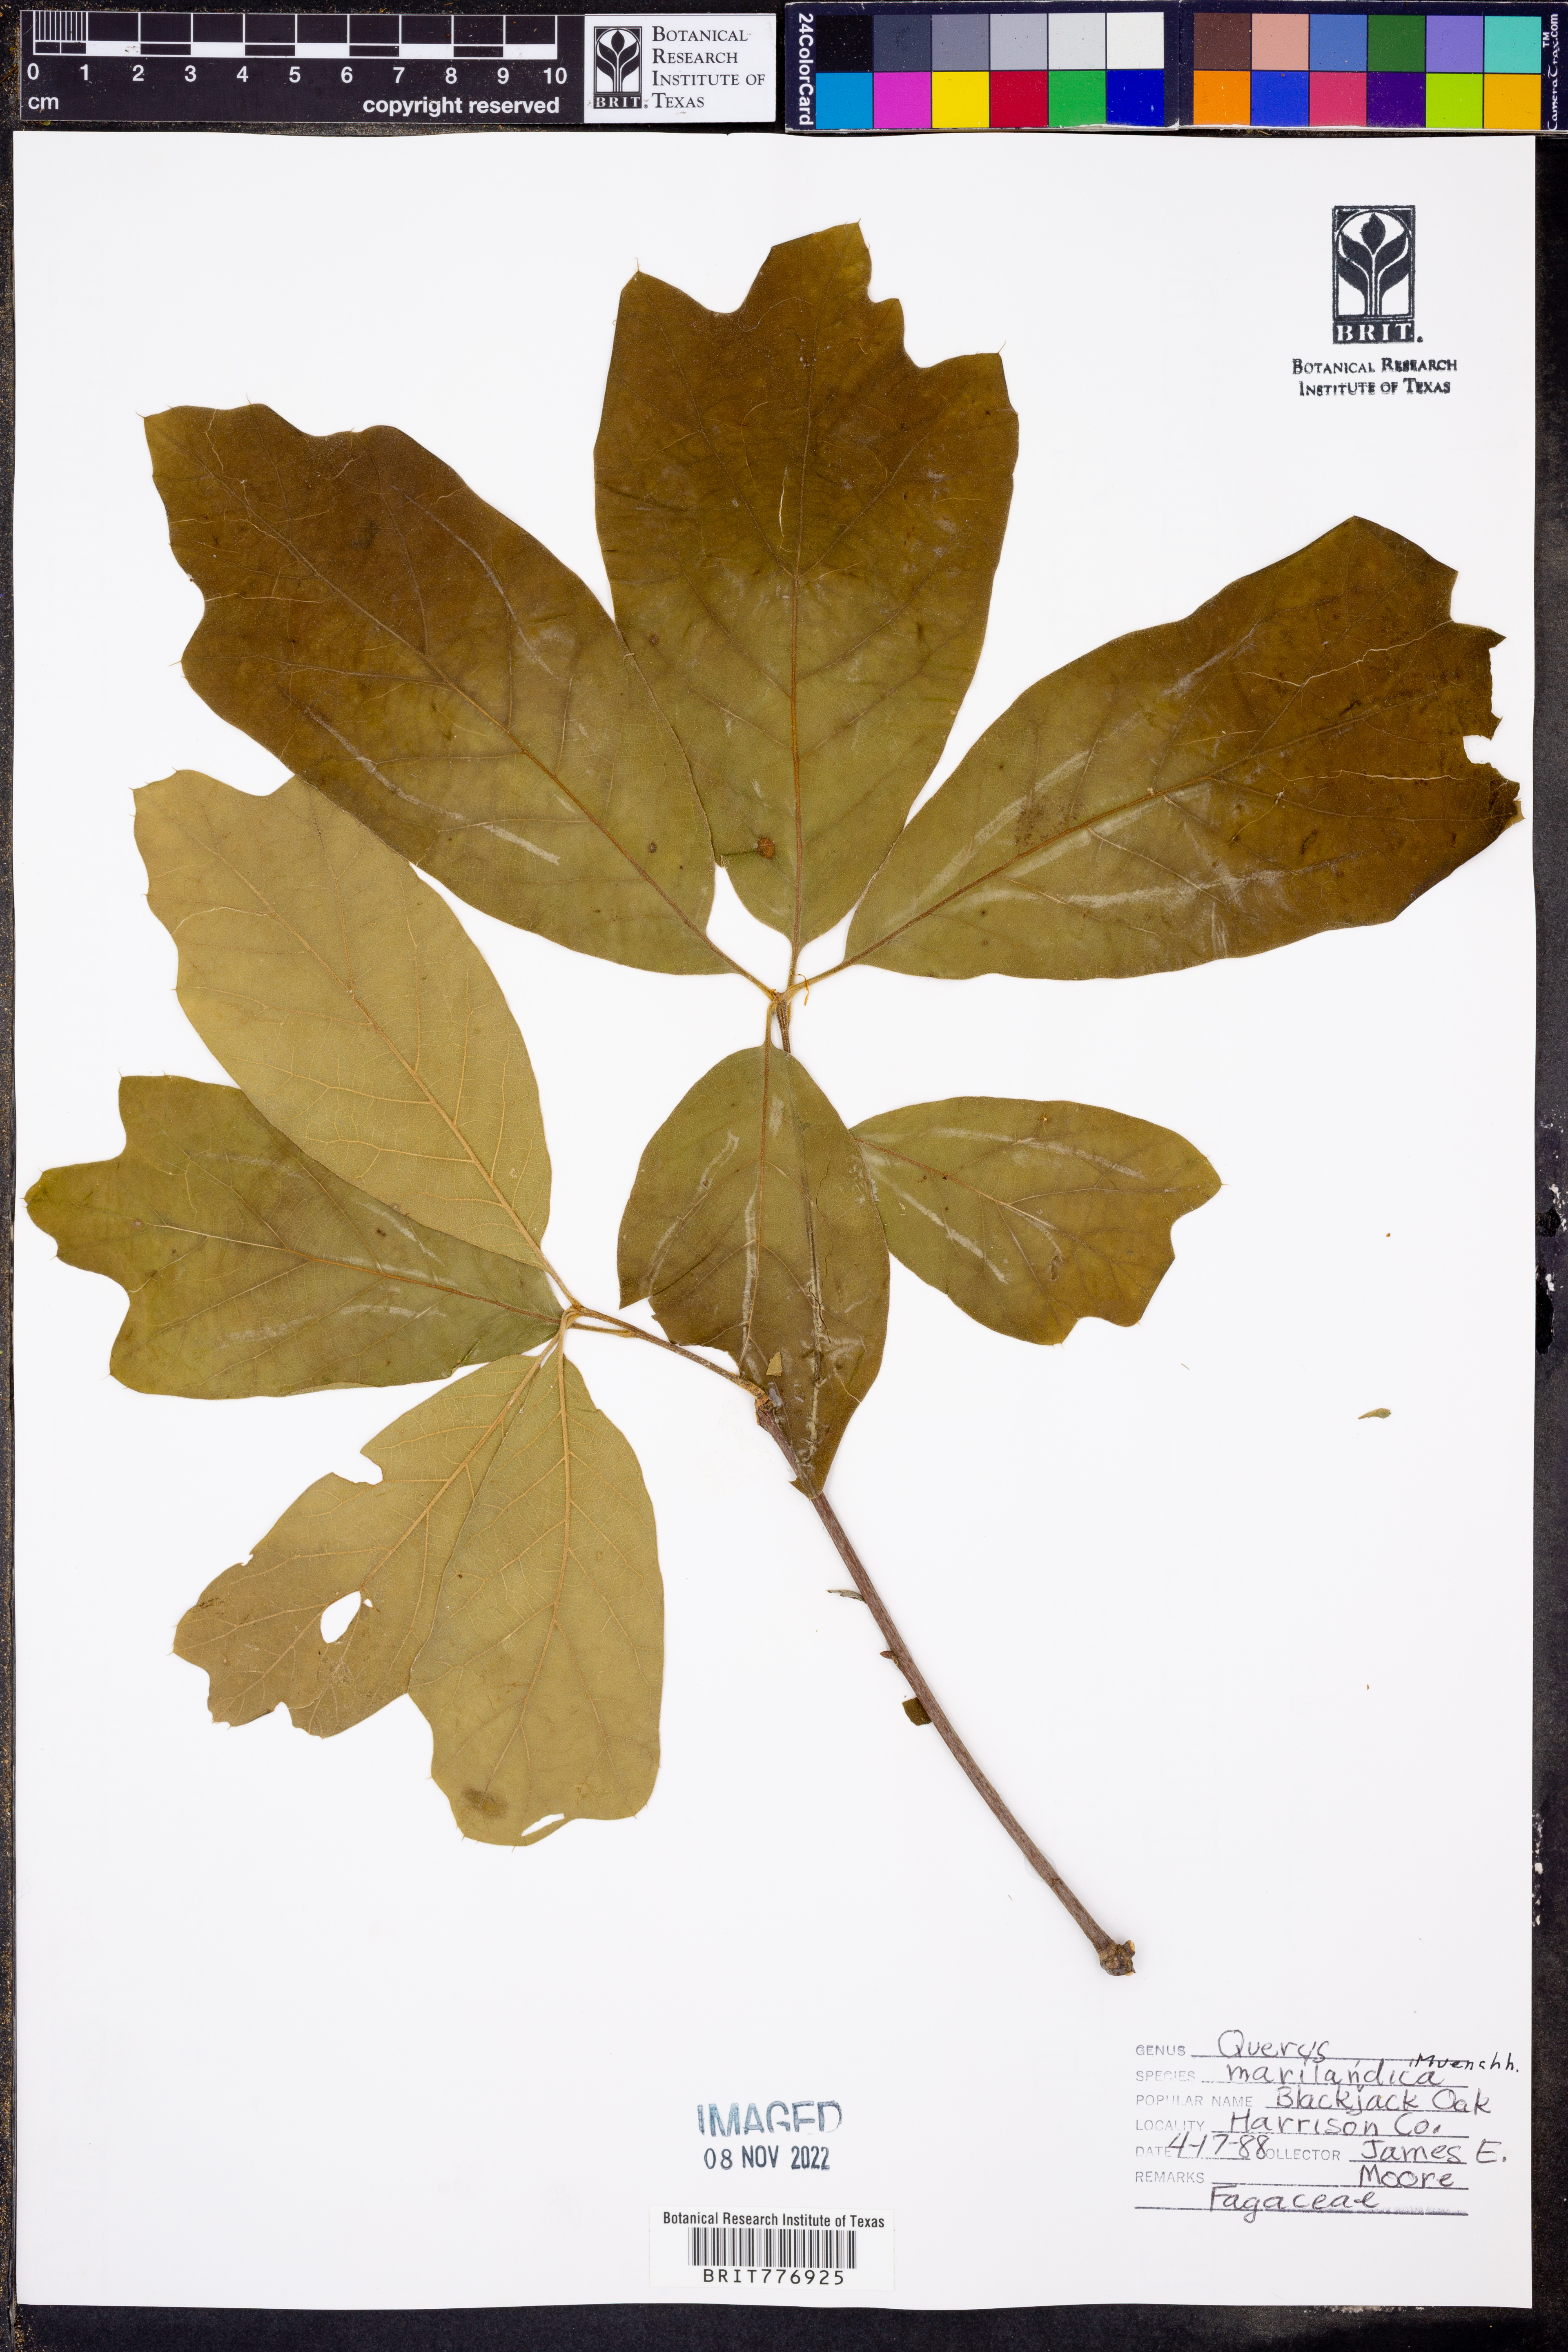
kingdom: Plantae
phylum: Tracheophyta
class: Magnoliopsida
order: Fagales
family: Fagaceae
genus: Quercus
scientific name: Quercus marilandica
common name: Blackjack oak
